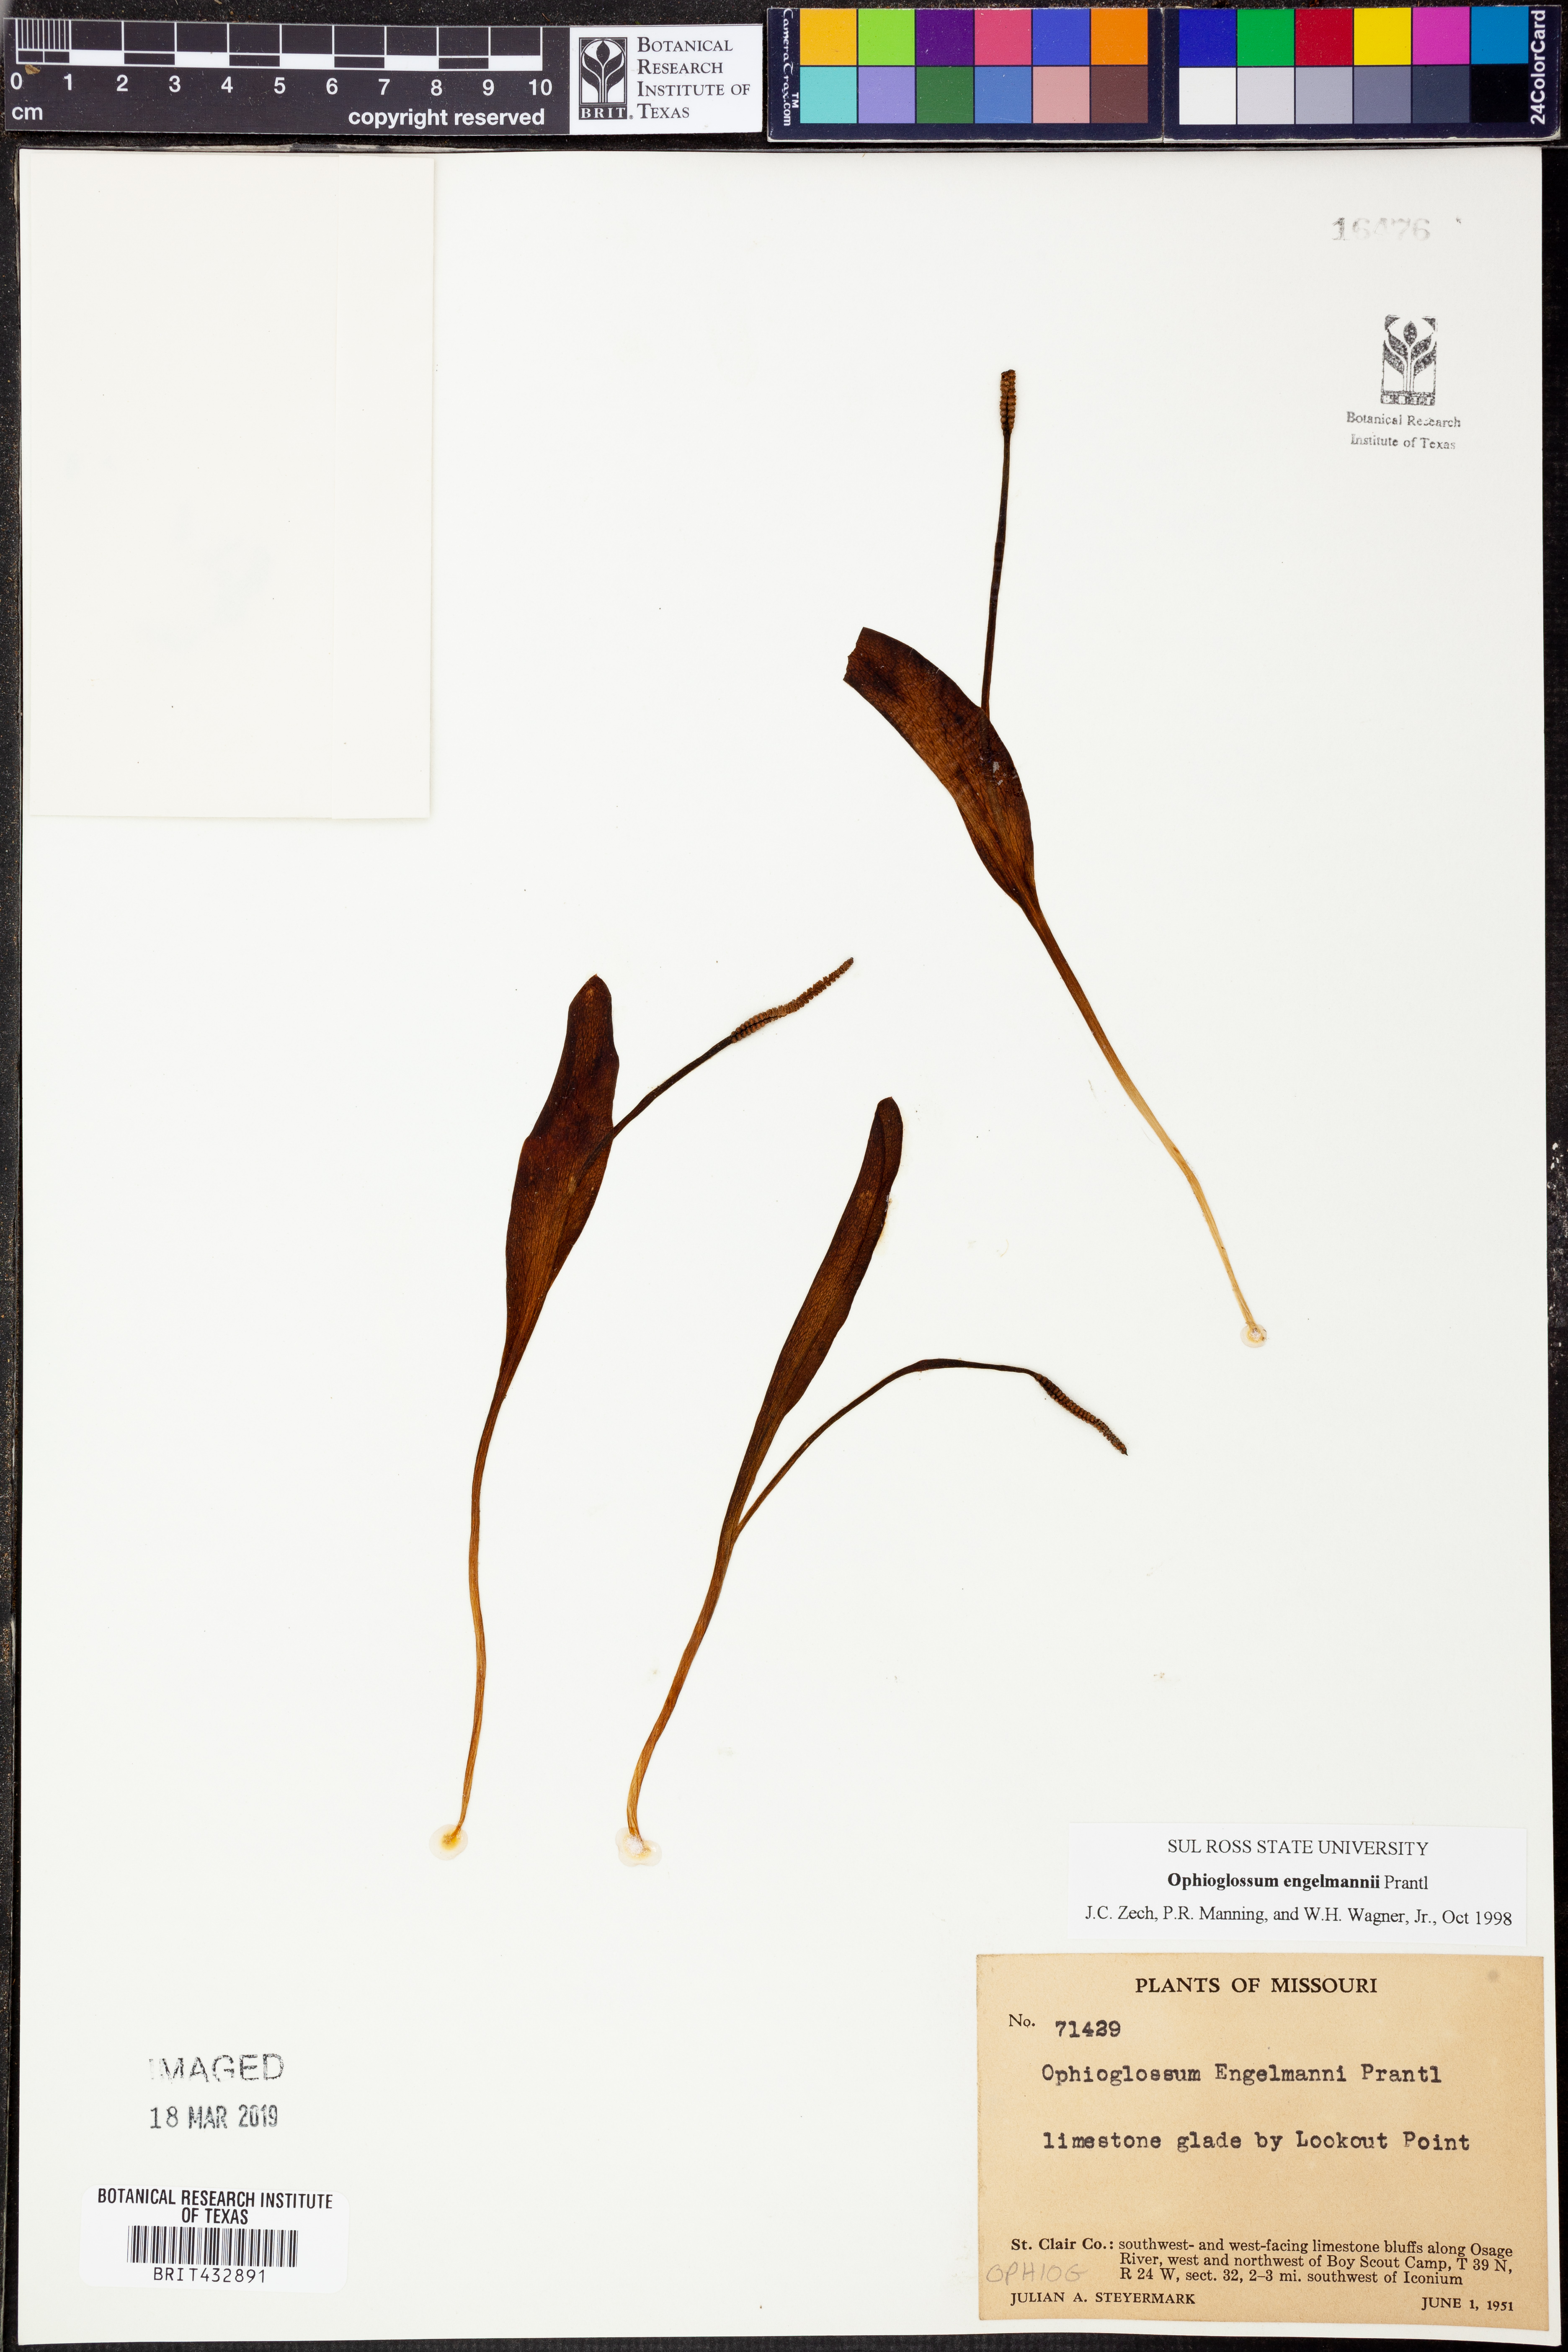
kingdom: Plantae
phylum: Tracheophyta
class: Polypodiopsida
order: Ophioglossales
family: Ophioglossaceae
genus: Ophioglossum
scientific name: Ophioglossum engelmannii
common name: Limestone adder's-tongue
